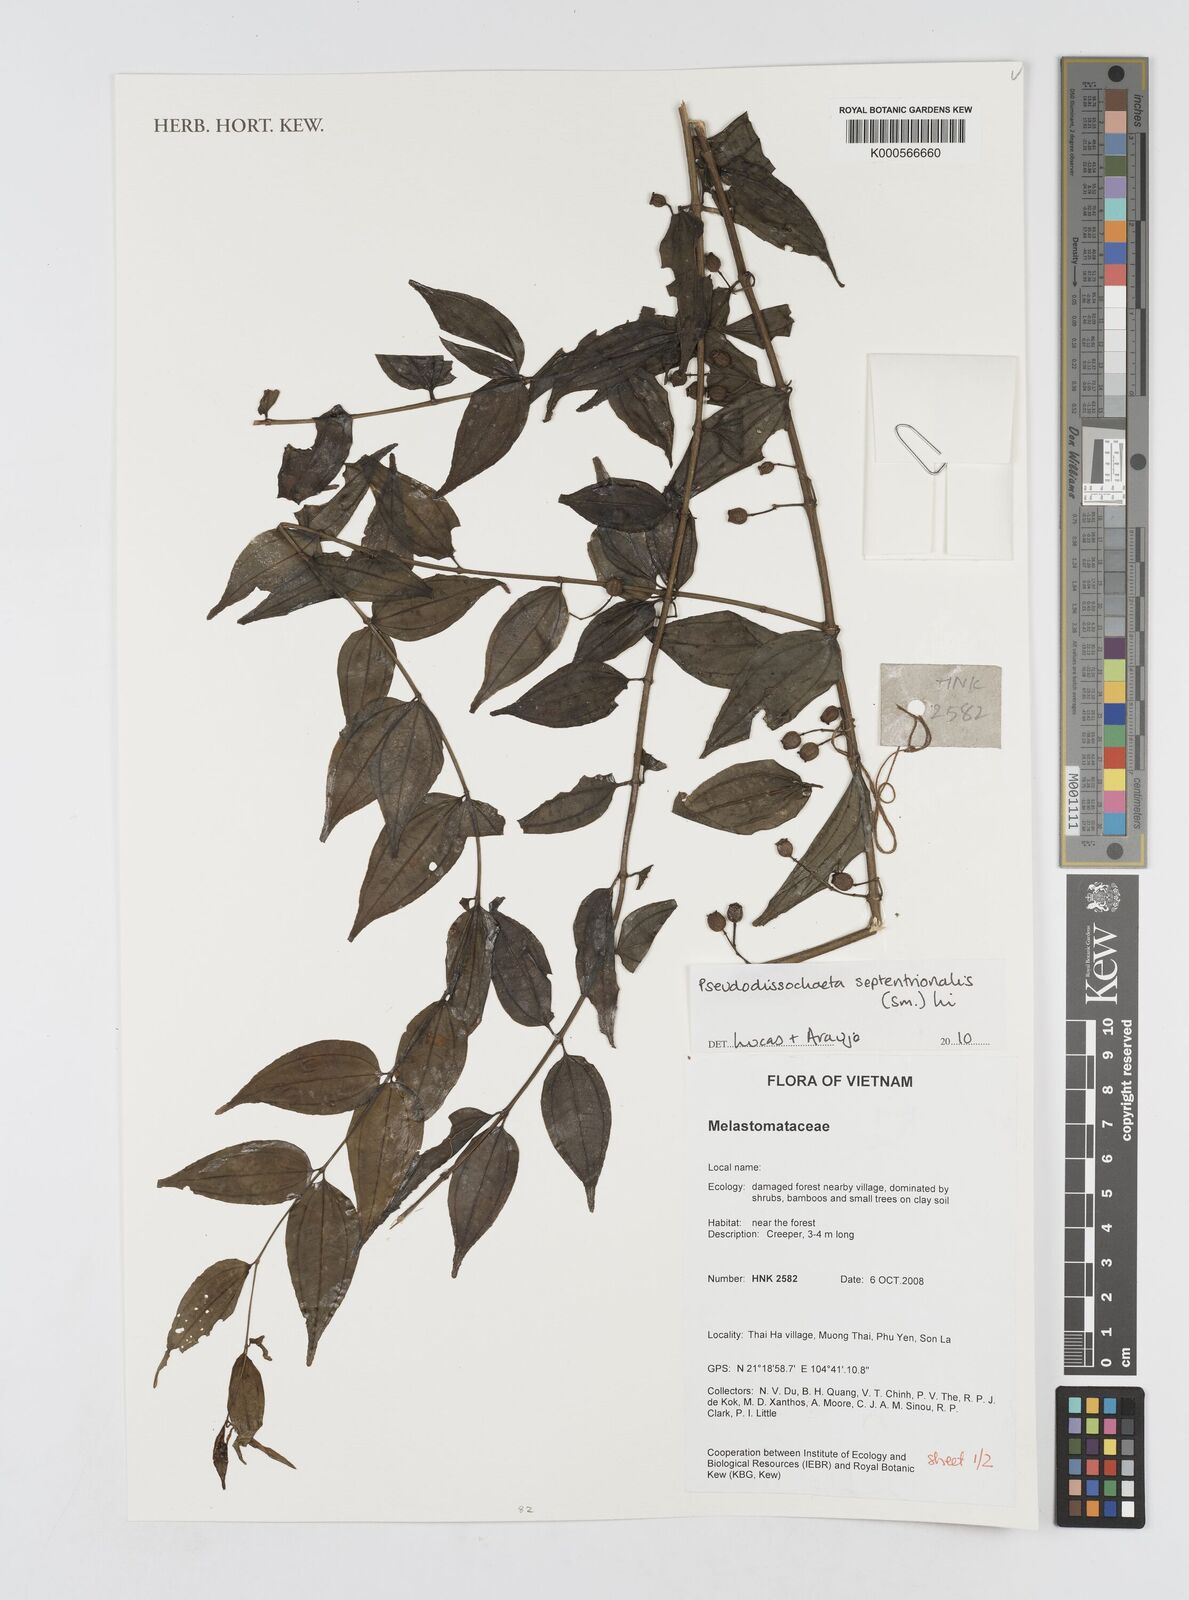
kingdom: Plantae
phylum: Tracheophyta
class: Magnoliopsida
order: Myrtales
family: Melastomataceae
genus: Pseudodissochaeta
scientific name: Pseudodissochaeta
